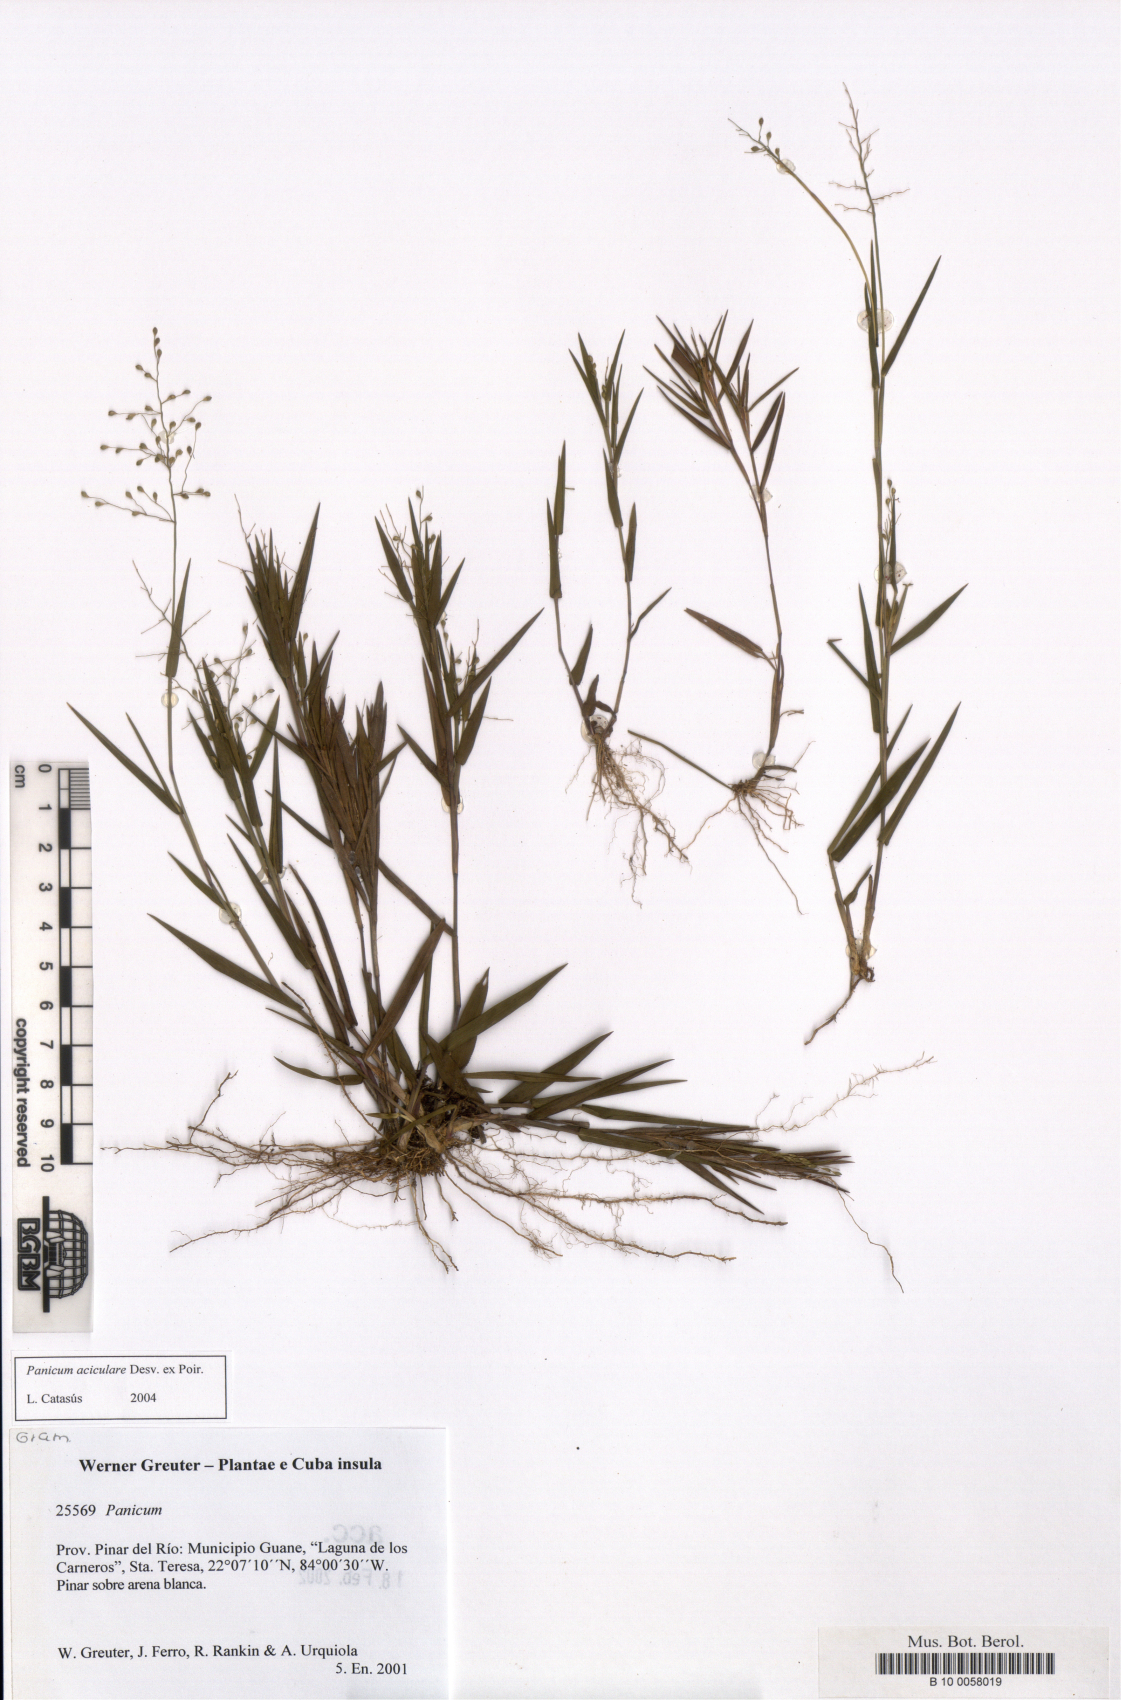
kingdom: Plantae
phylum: Tracheophyta
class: Liliopsida
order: Poales
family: Poaceae
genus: Dichanthelium
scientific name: Dichanthelium aciculare
